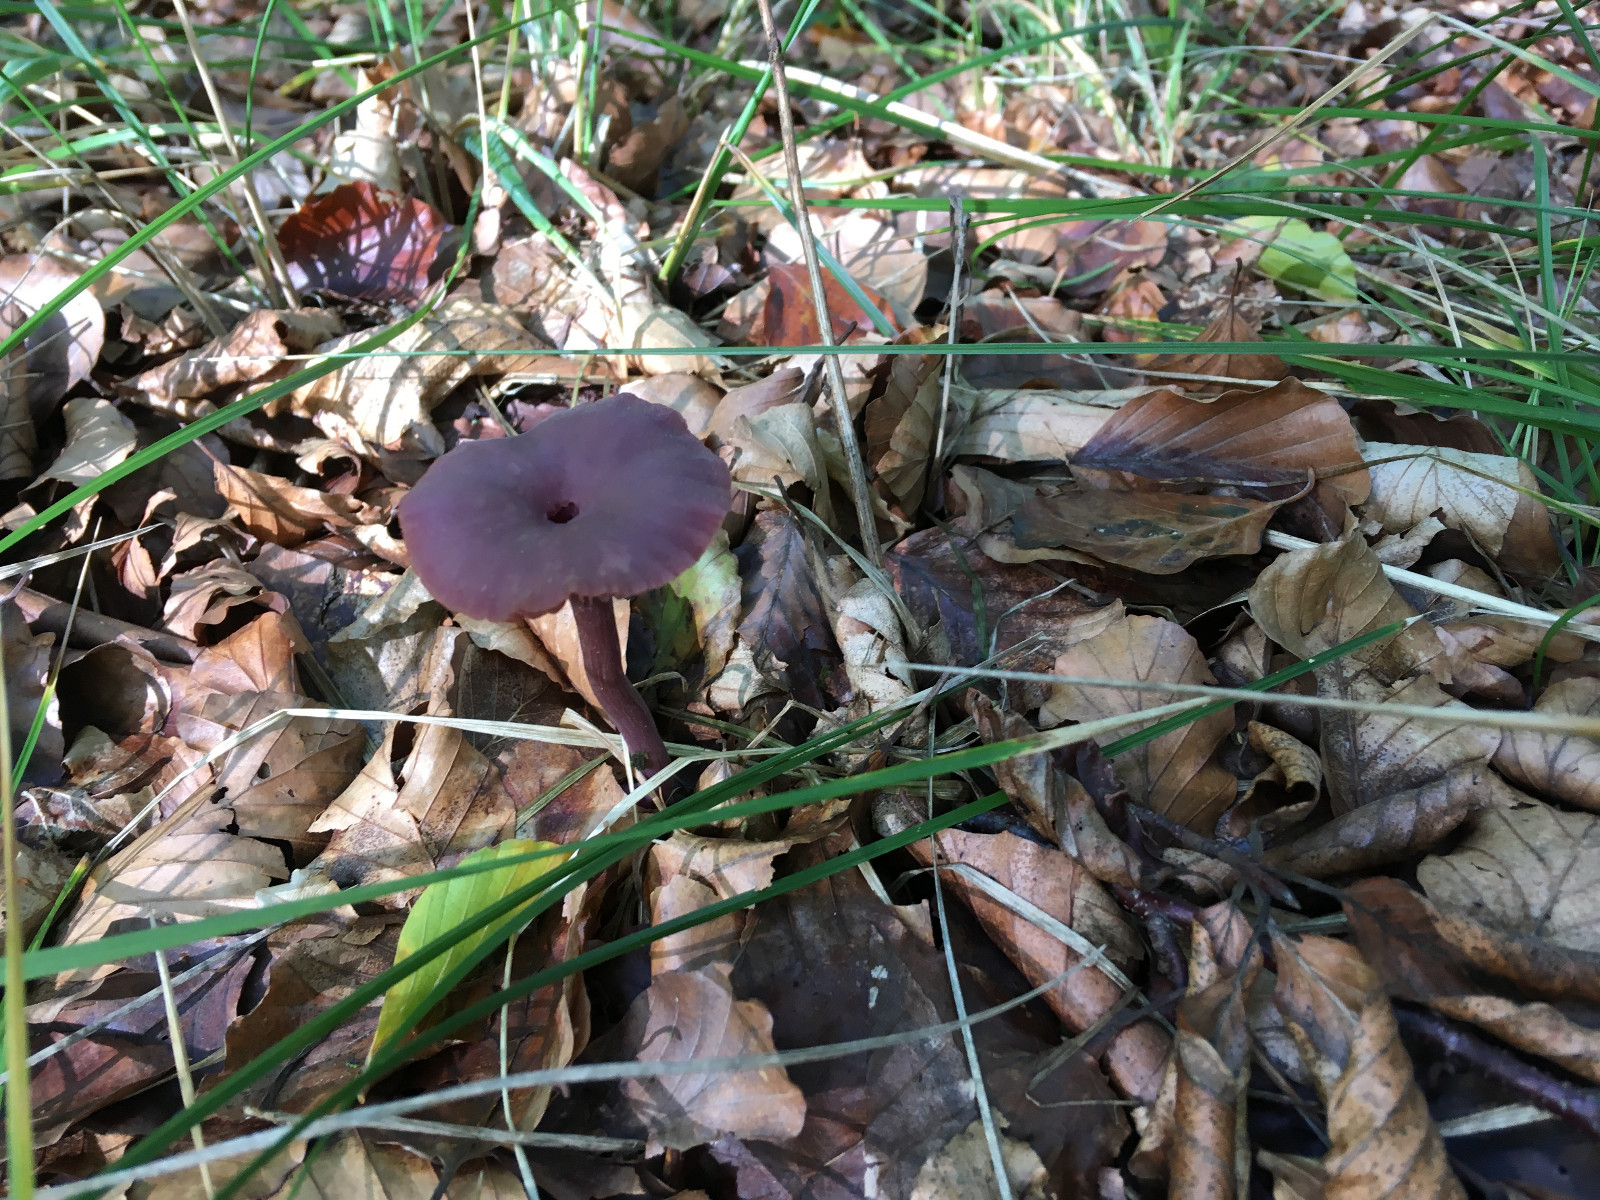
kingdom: Fungi
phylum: Basidiomycota
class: Agaricomycetes
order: Agaricales
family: Hydnangiaceae
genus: Laccaria
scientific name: Laccaria amethystina
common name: violet ametysthat
